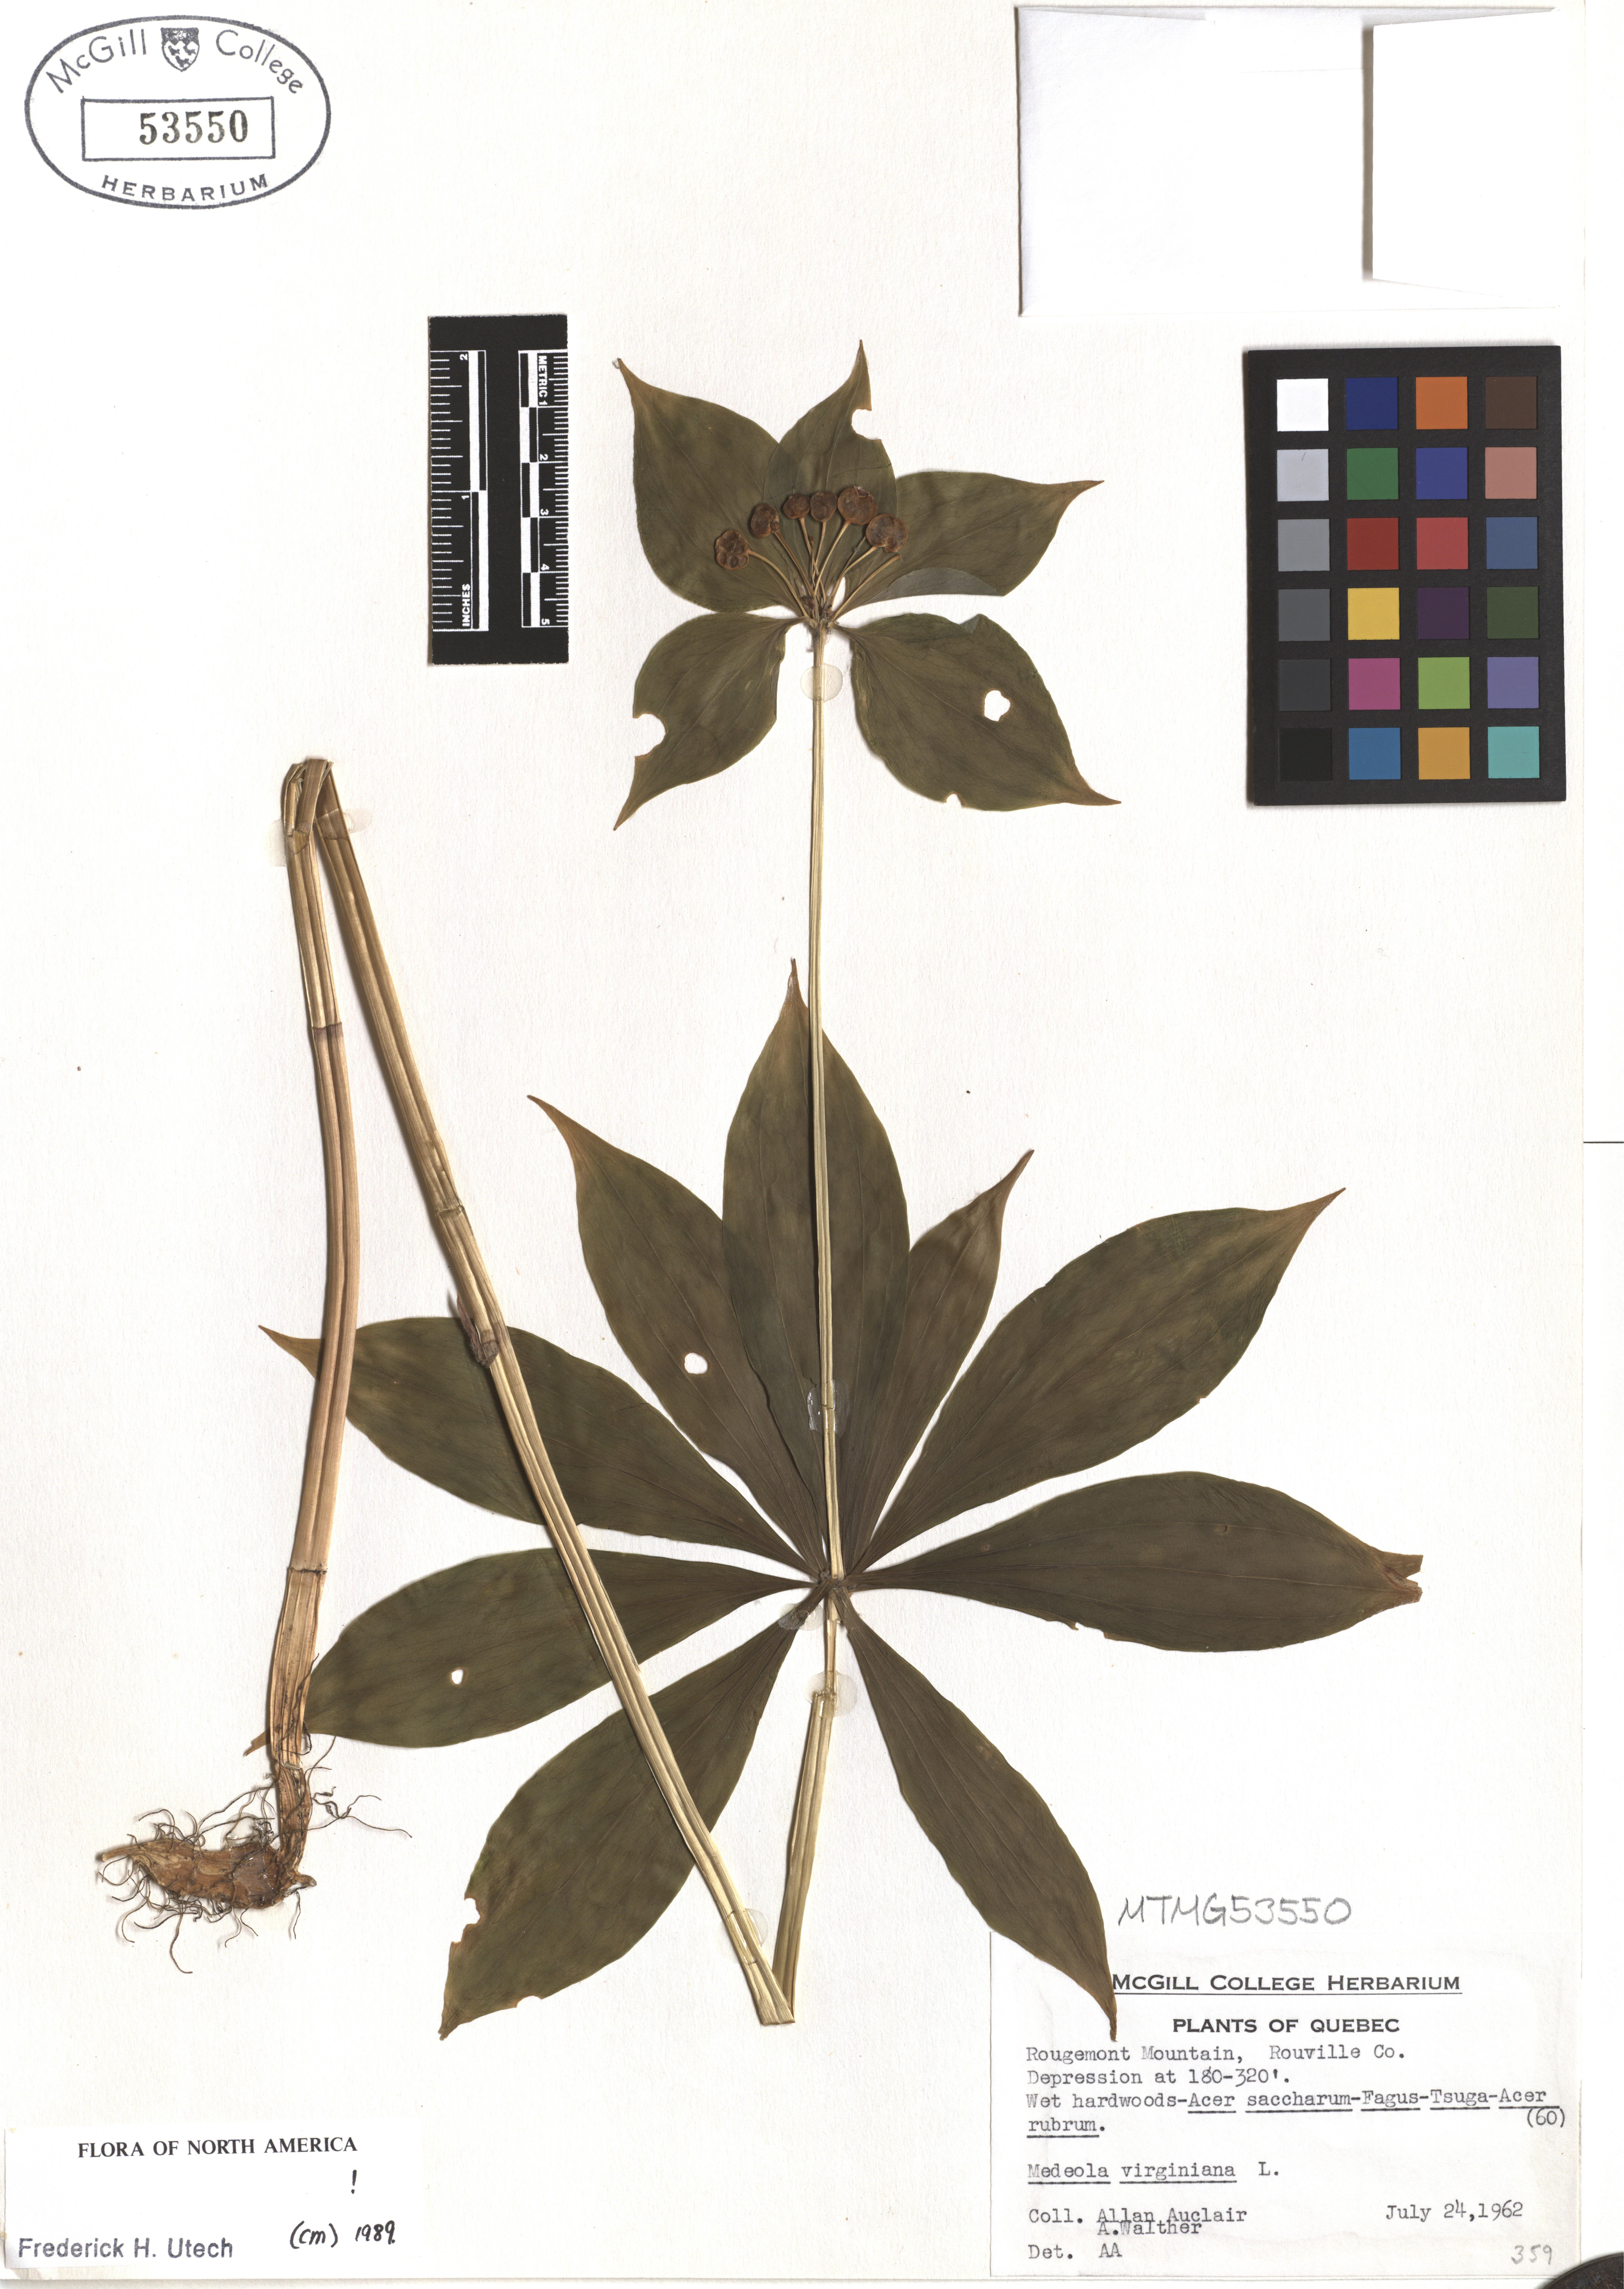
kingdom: Plantae
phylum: Tracheophyta
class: Liliopsida
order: Liliales
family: Liliaceae
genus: Medeola
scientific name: Medeola virginiana
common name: Indian cucumber-root
